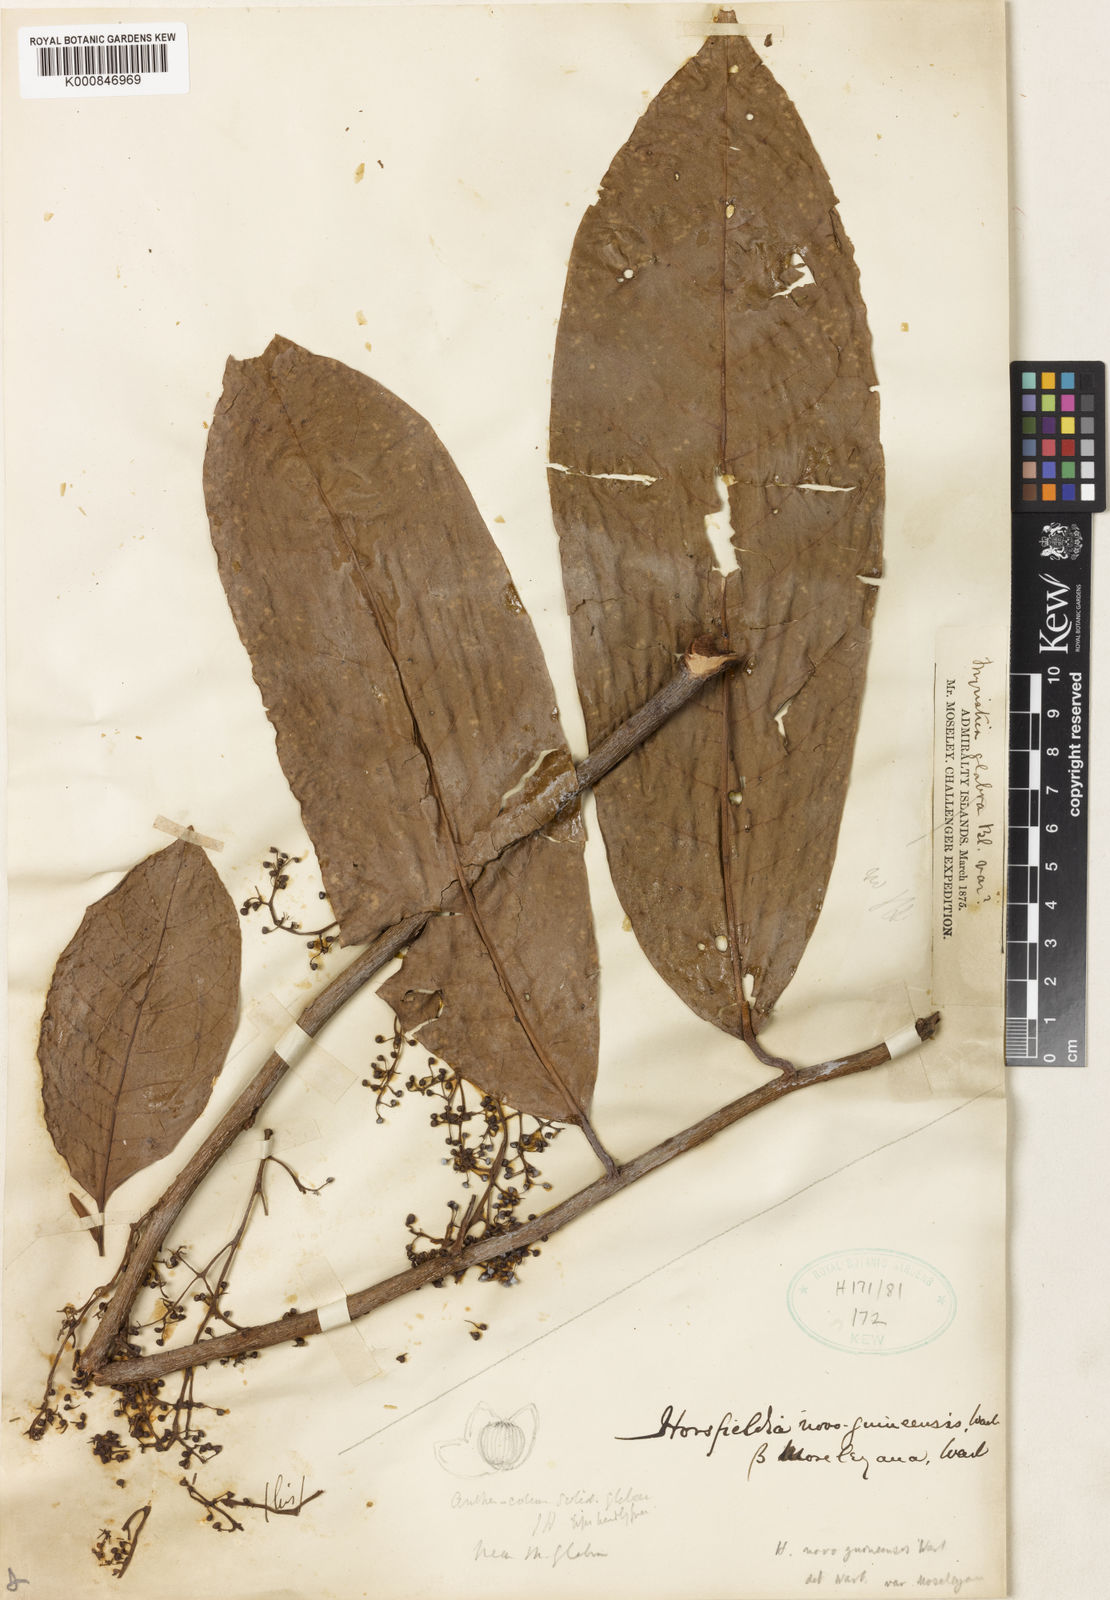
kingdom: Plantae
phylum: Tracheophyta
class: Magnoliopsida
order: Magnoliales
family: Myristicaceae
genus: Horsfieldia
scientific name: Horsfieldia tuberculata
